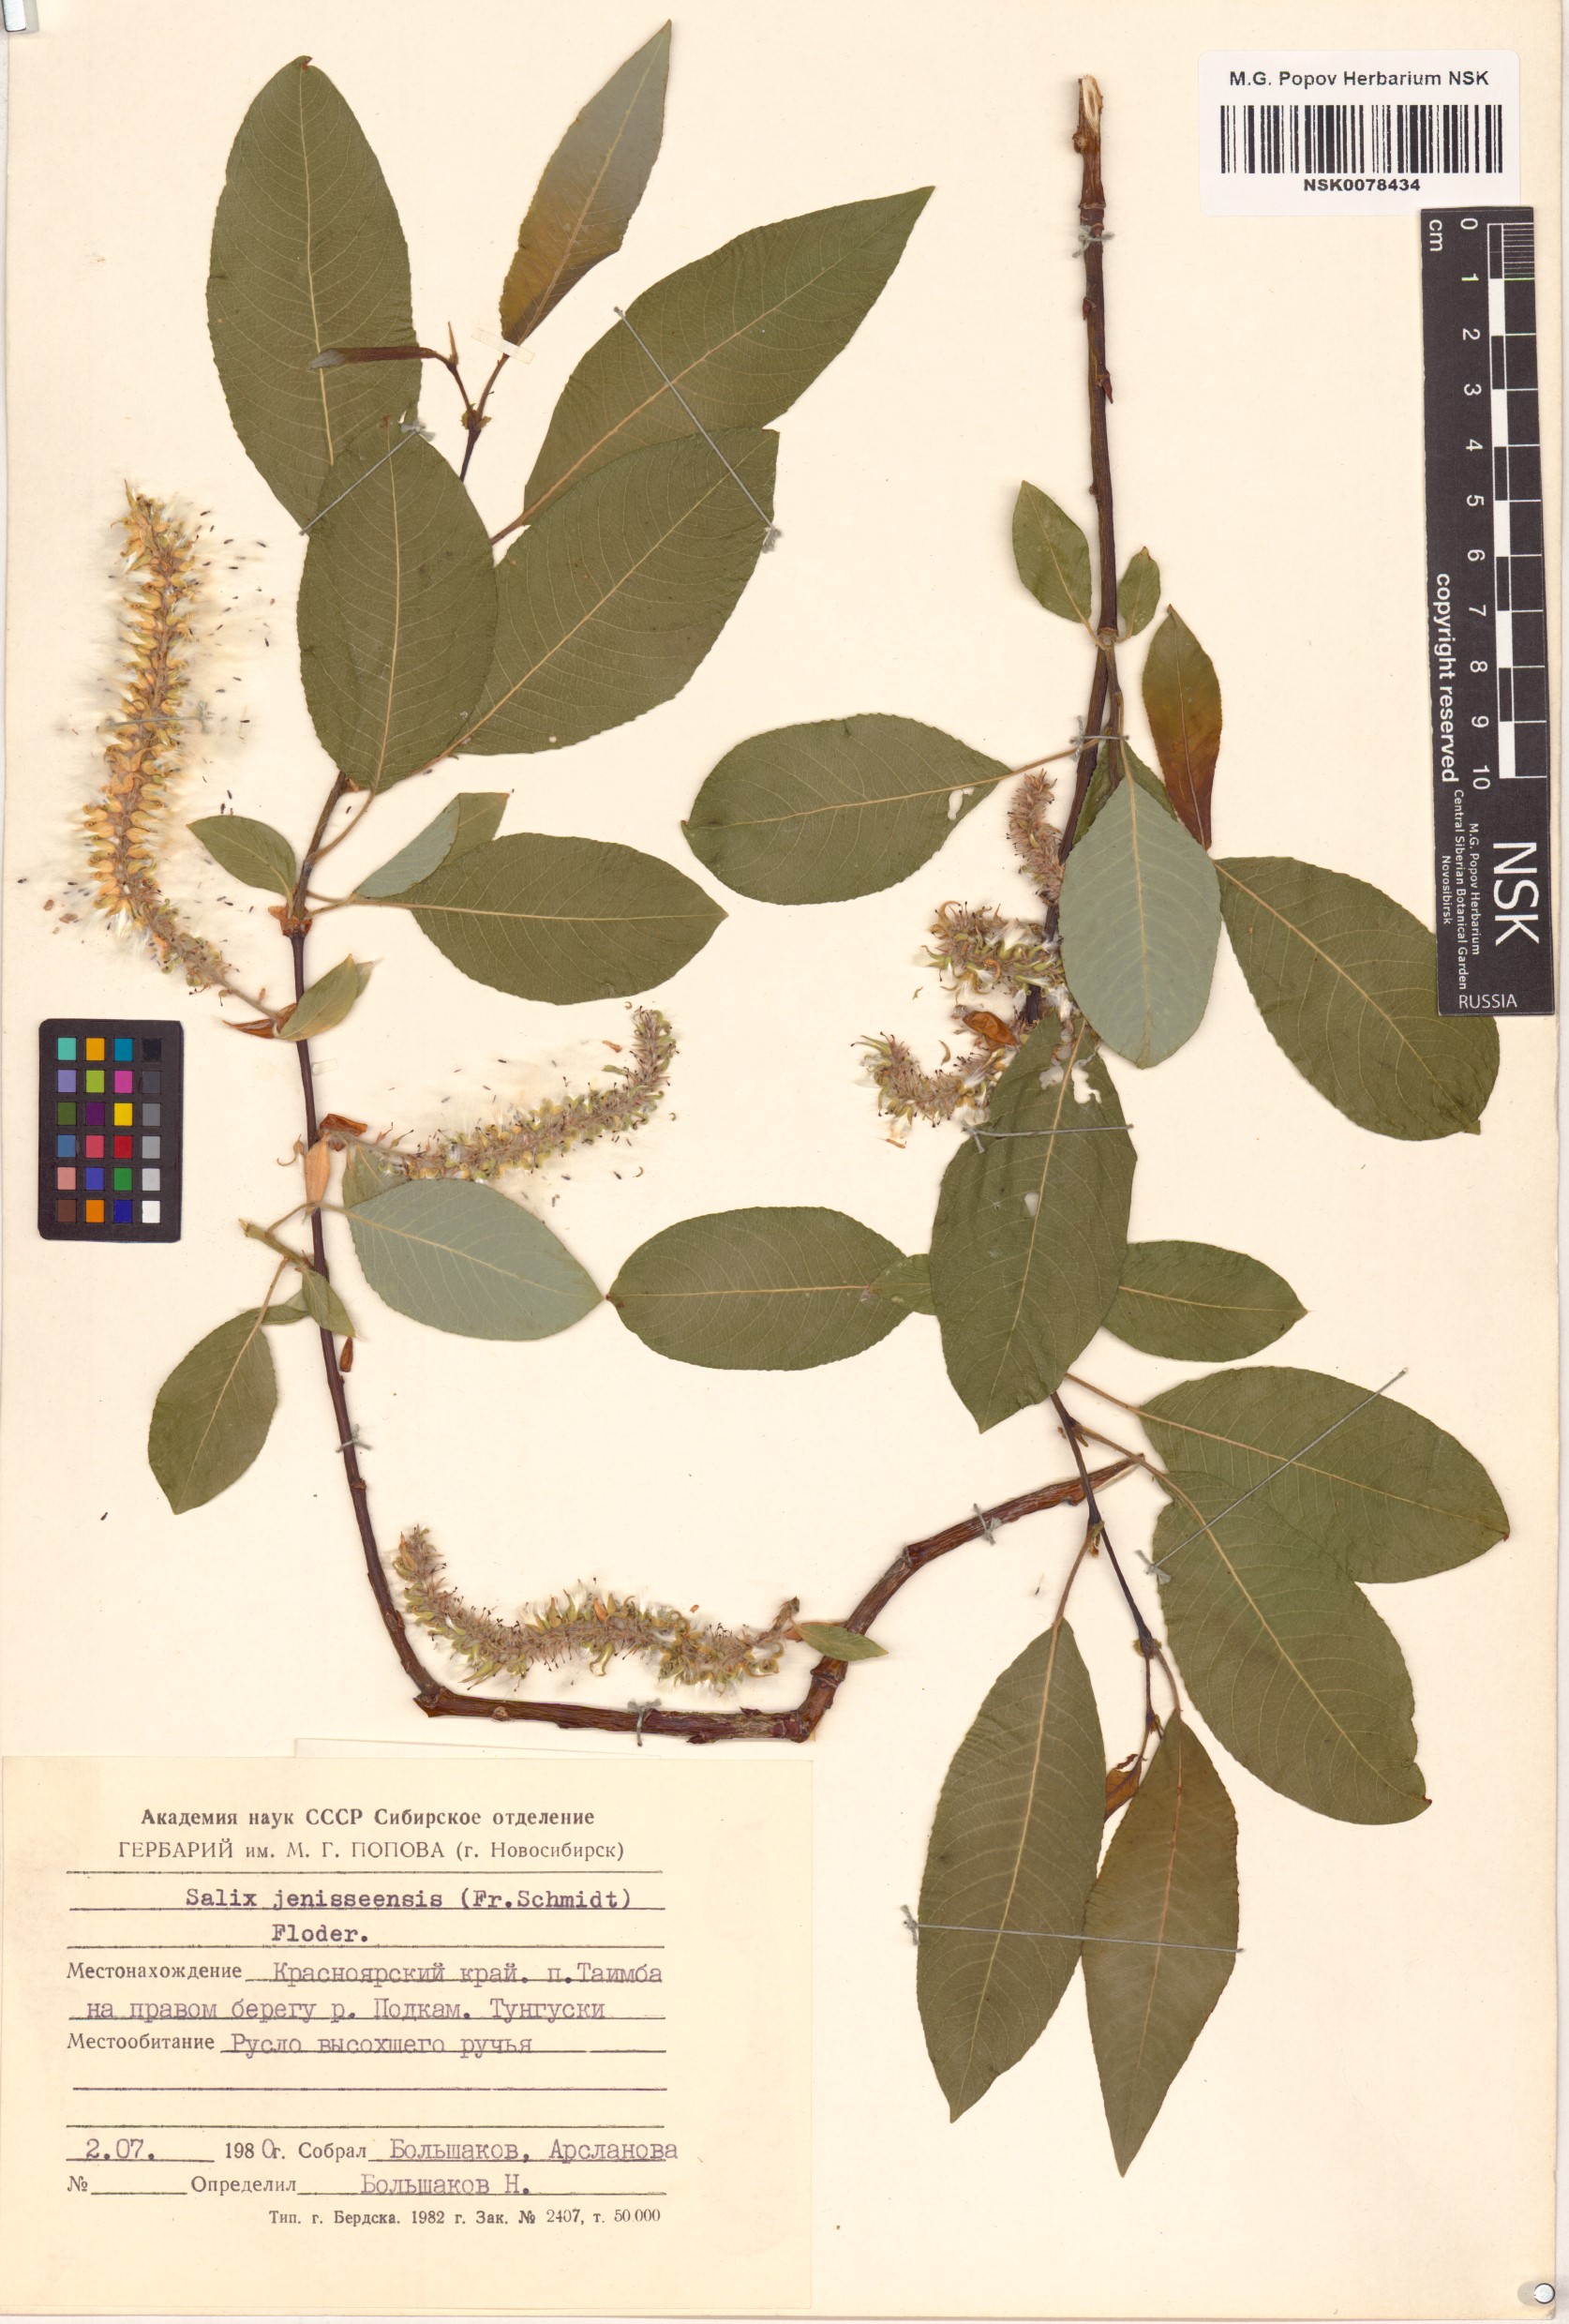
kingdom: Plantae
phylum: Tracheophyta
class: Magnoliopsida
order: Malpighiales
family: Salicaceae
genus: Salix
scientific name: Salix jenisseensis
